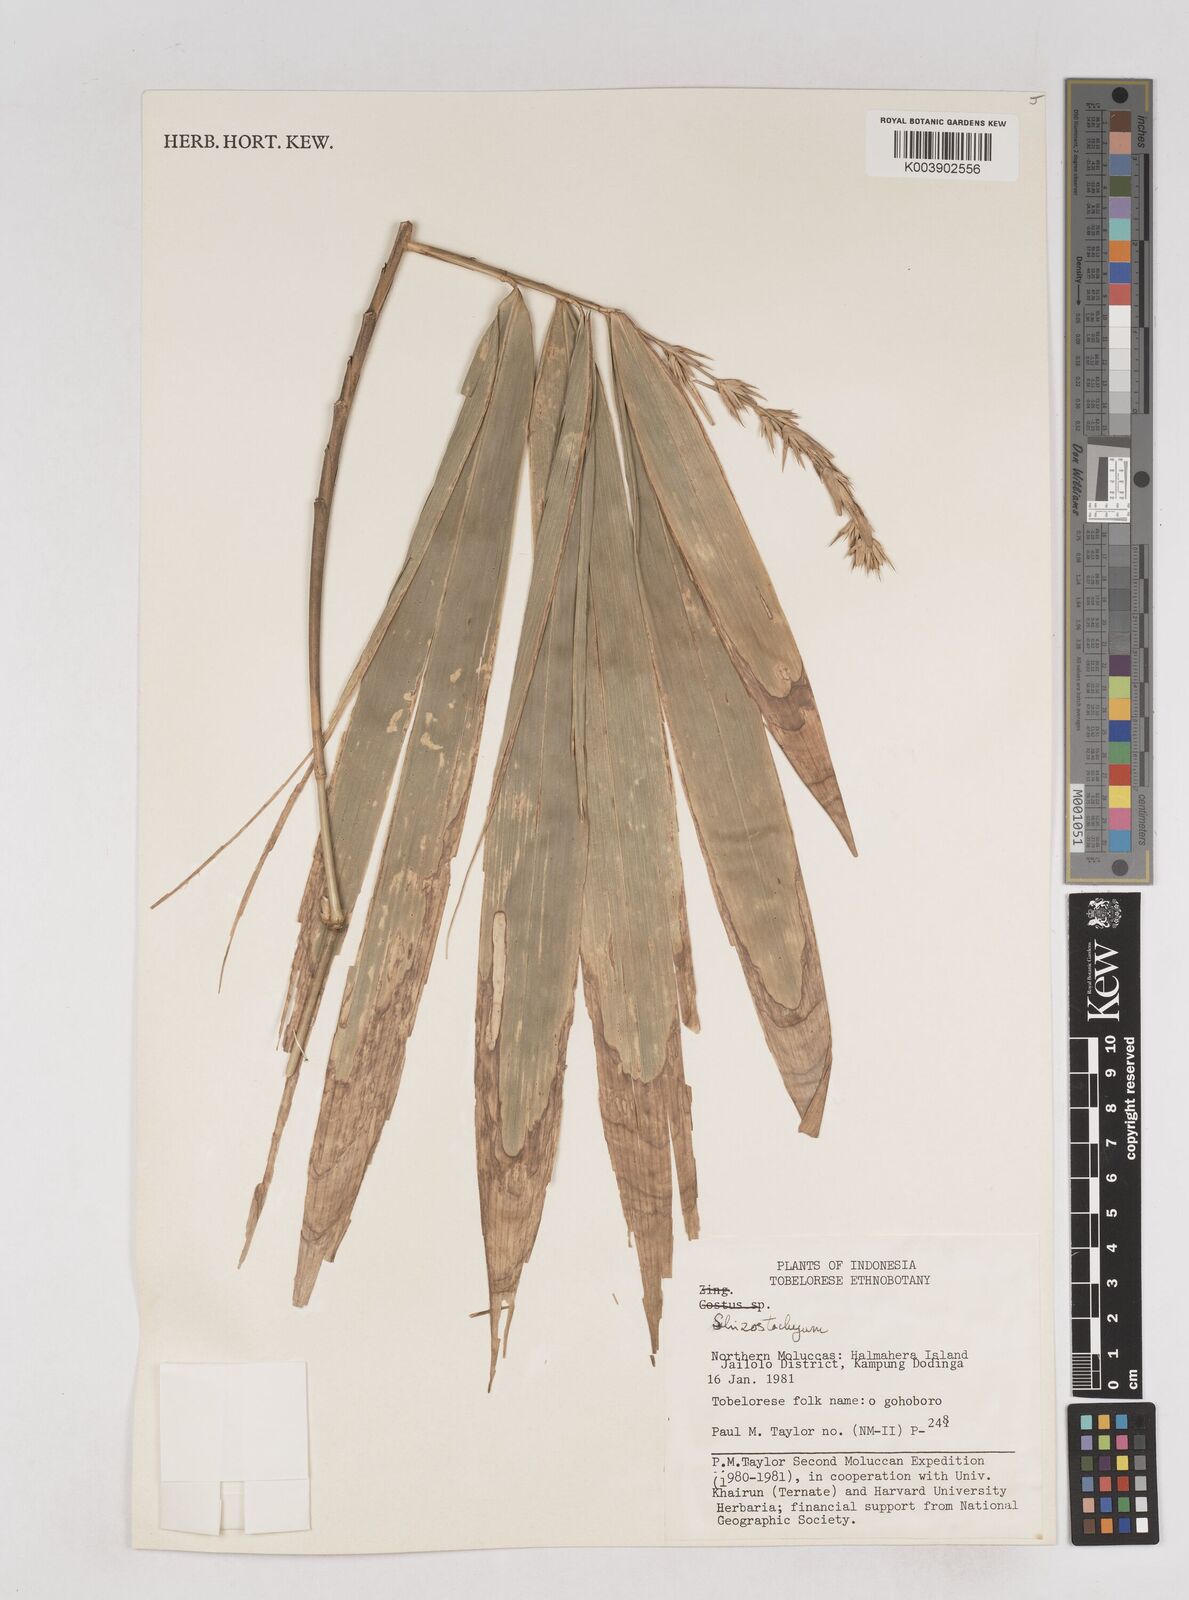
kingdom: Plantae
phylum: Tracheophyta
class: Liliopsida
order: Poales
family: Poaceae
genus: Schizostachyum
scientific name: Schizostachyum
